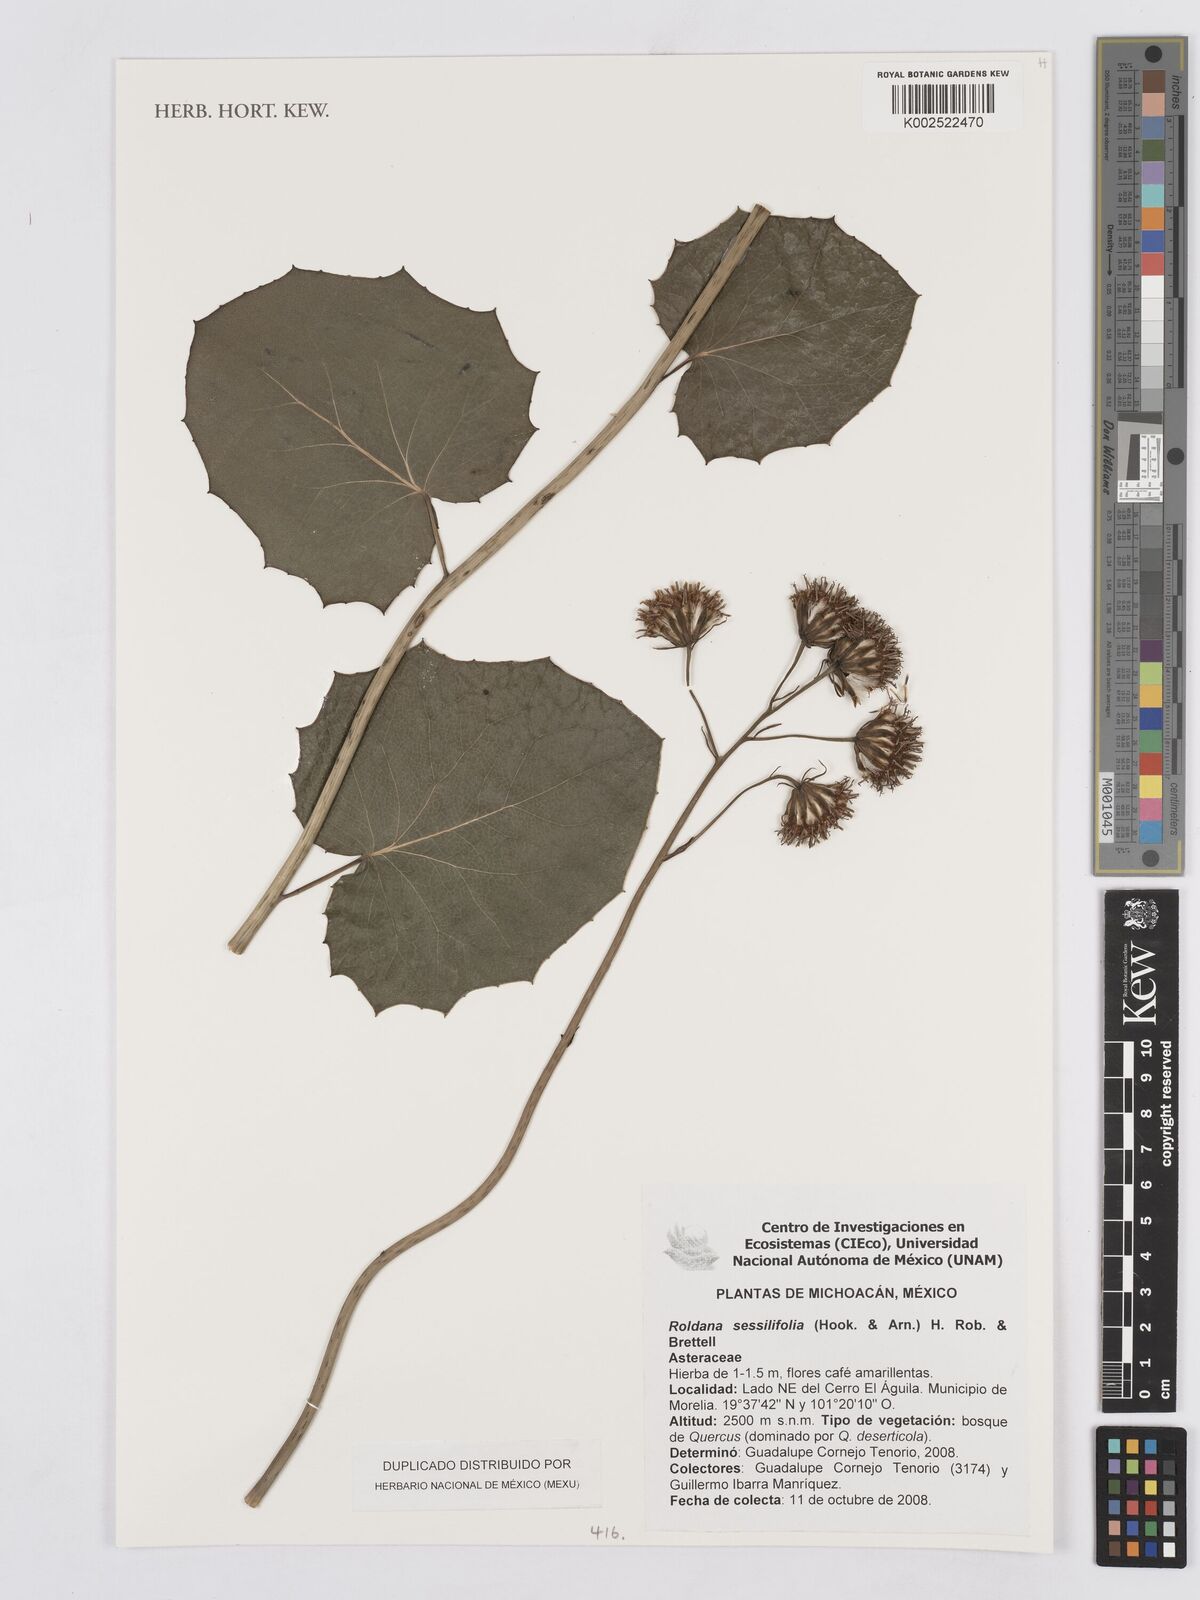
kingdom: Plantae
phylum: Tracheophyta
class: Magnoliopsida
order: Asterales
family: Asteraceae
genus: Roldana
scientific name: Roldana sessilifolia
